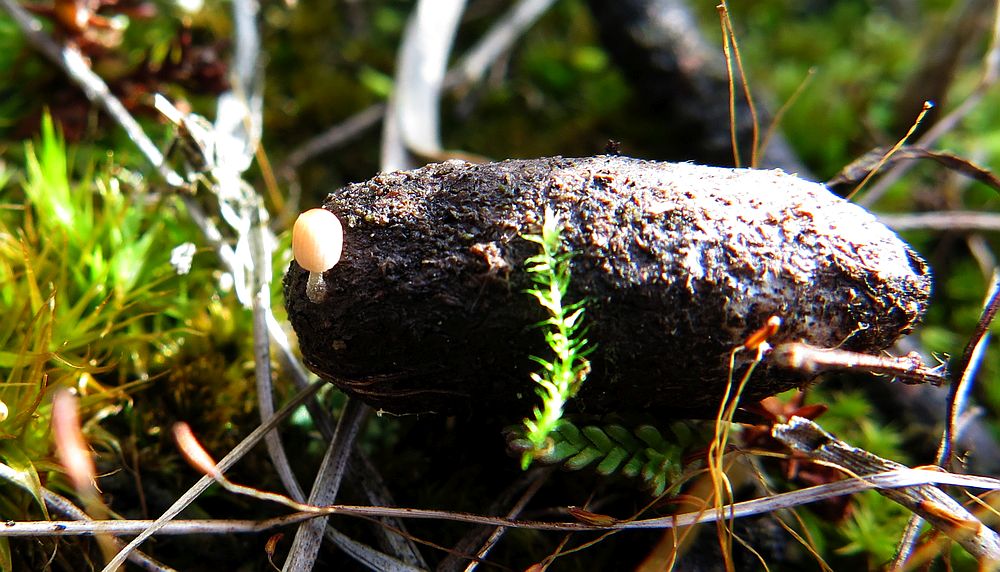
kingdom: Fungi
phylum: Basidiomycota
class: Agaricomycetes
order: Agaricales
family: Psathyrellaceae
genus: Parasola
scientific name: Parasola misera
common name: lillebitte hjulhat
